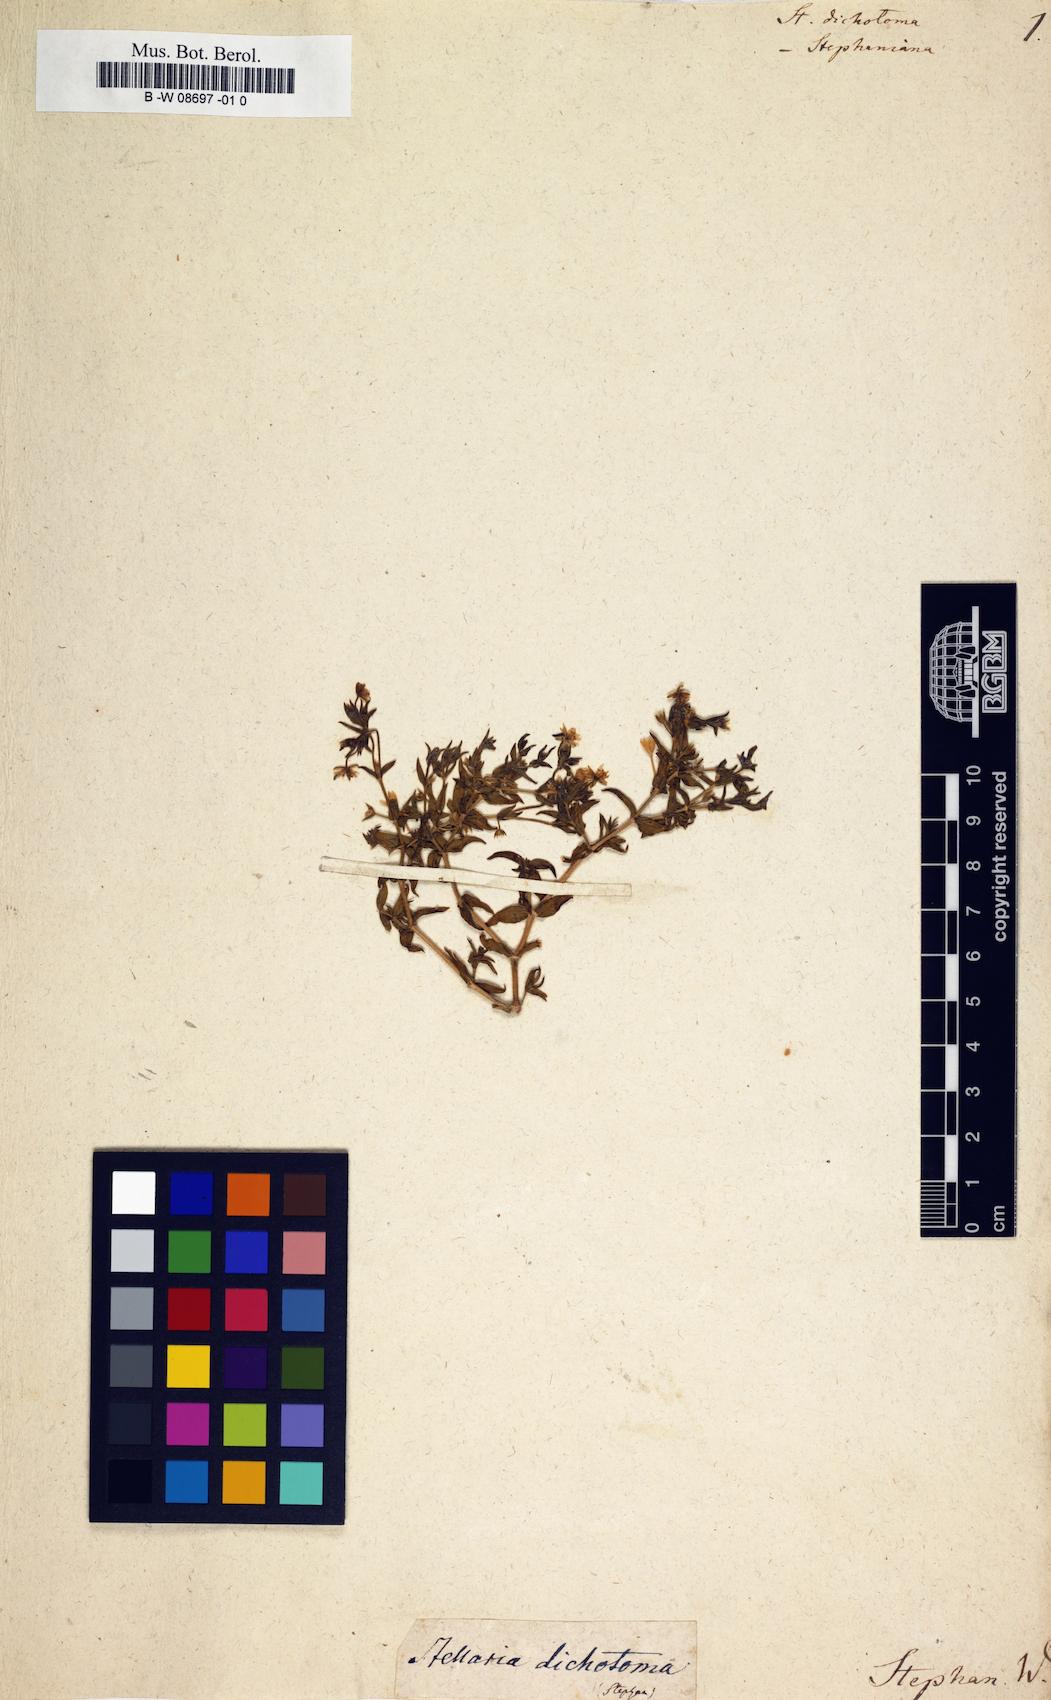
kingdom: Plantae
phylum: Tracheophyta
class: Magnoliopsida
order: Caryophyllales
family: Caryophyllaceae
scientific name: Caryophyllaceae
